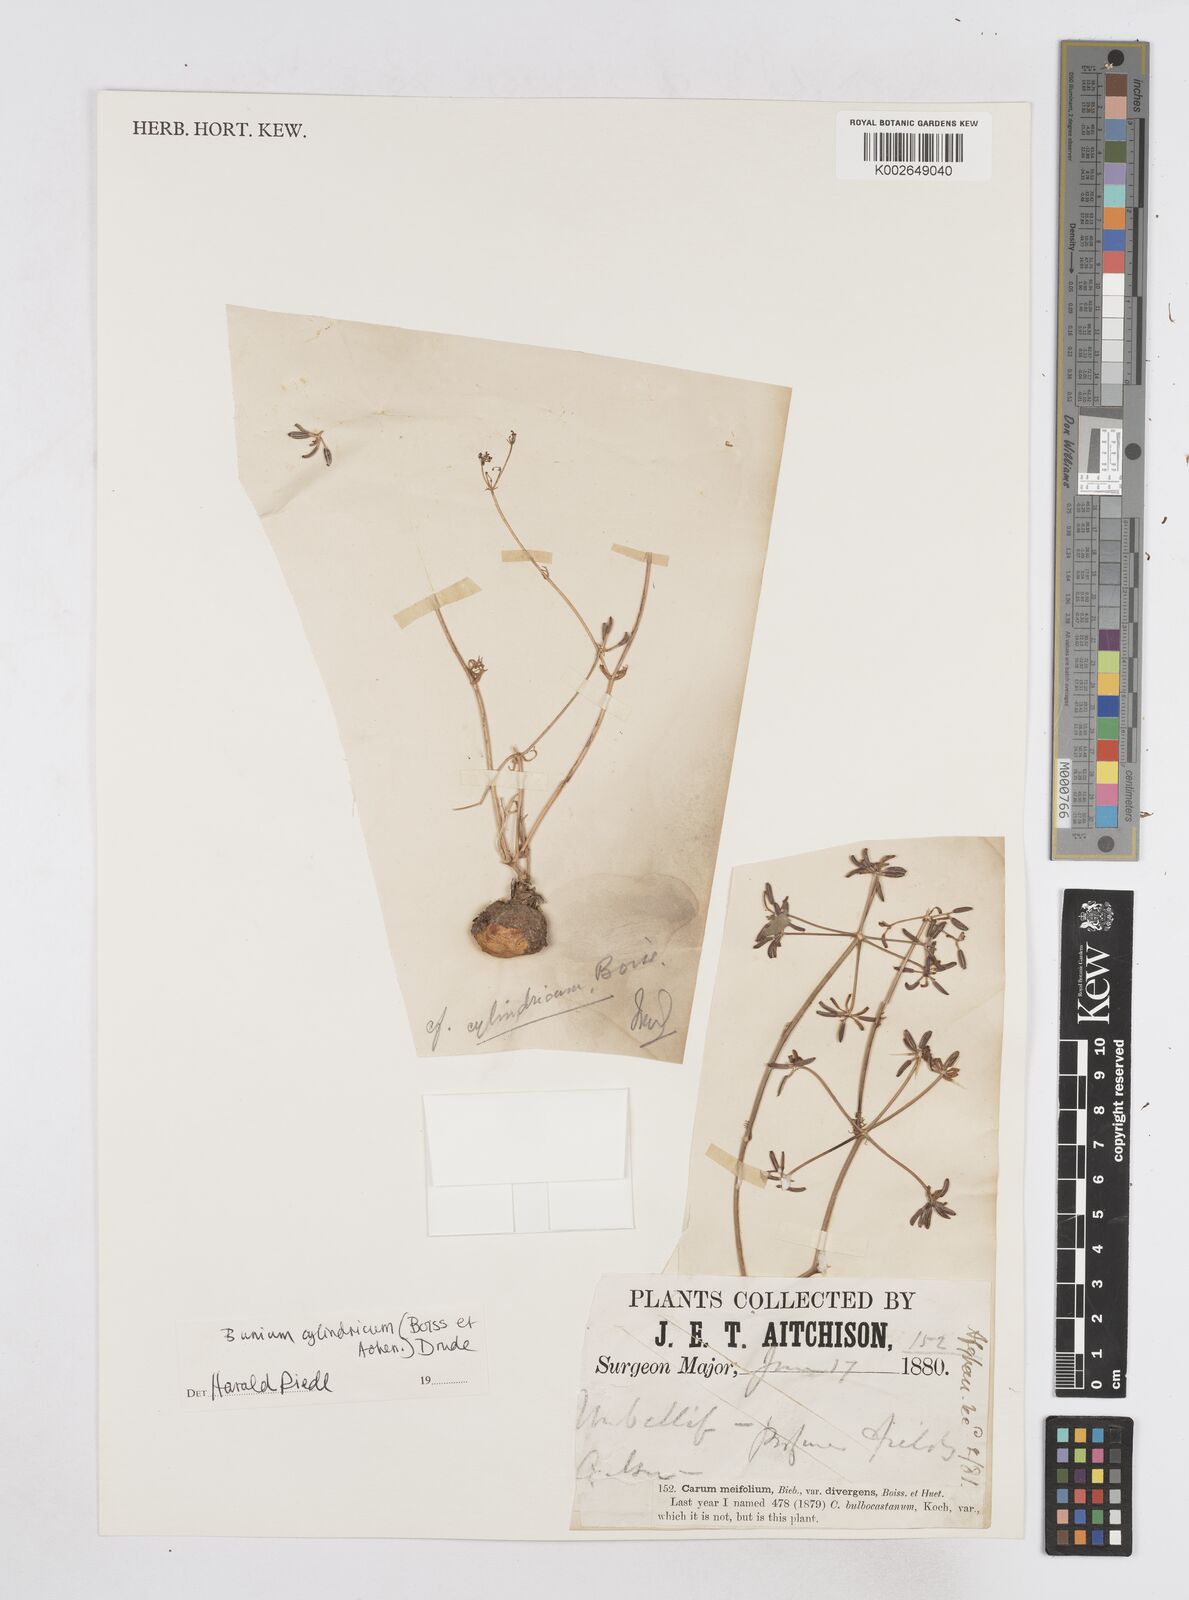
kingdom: Plantae
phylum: Tracheophyta
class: Magnoliopsida
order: Apiales
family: Apiaceae
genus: Elwendia
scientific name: Elwendia cylindrica
